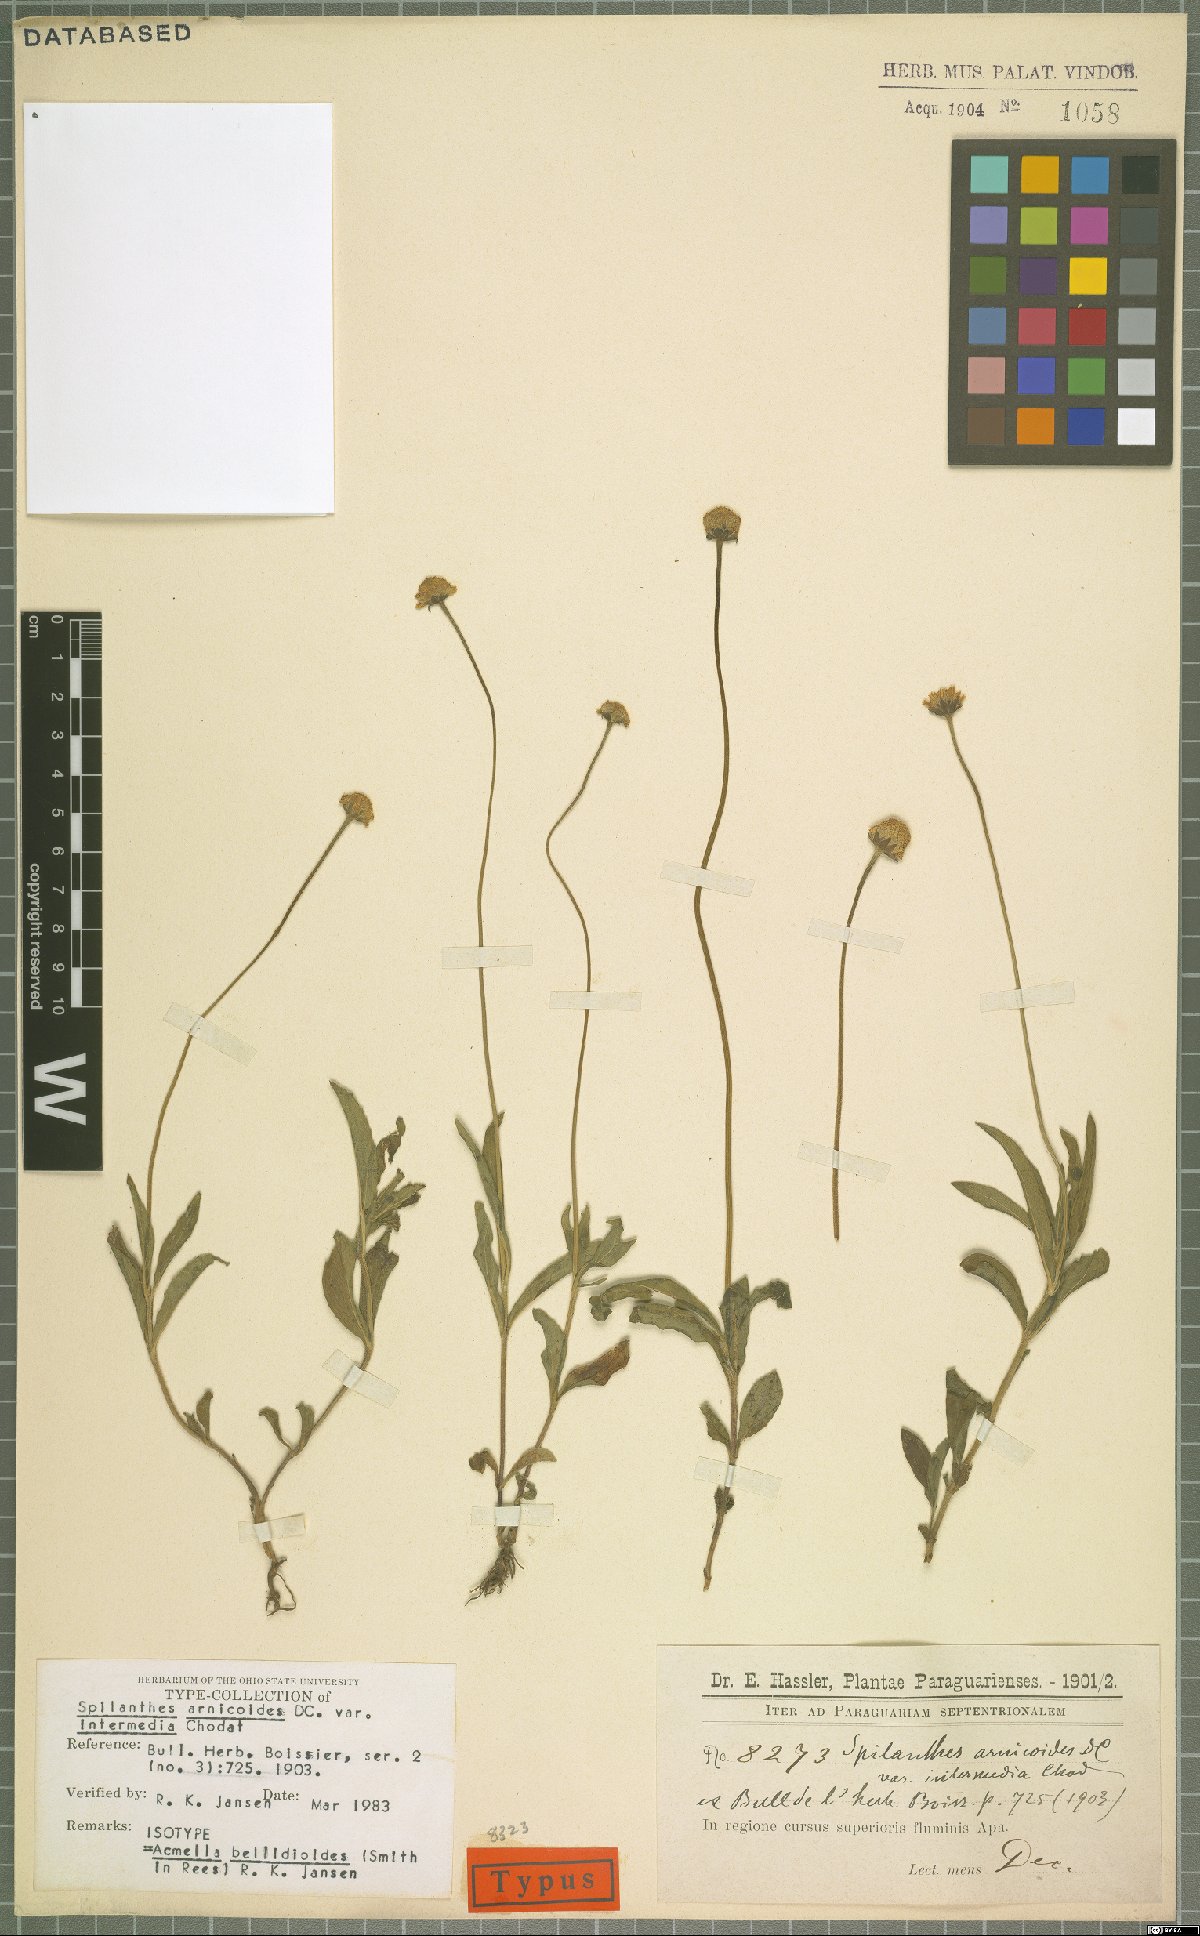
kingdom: Plantae
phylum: Tracheophyta
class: Magnoliopsida
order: Asterales
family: Asteraceae
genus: Acmella
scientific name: Acmella bellidioides
